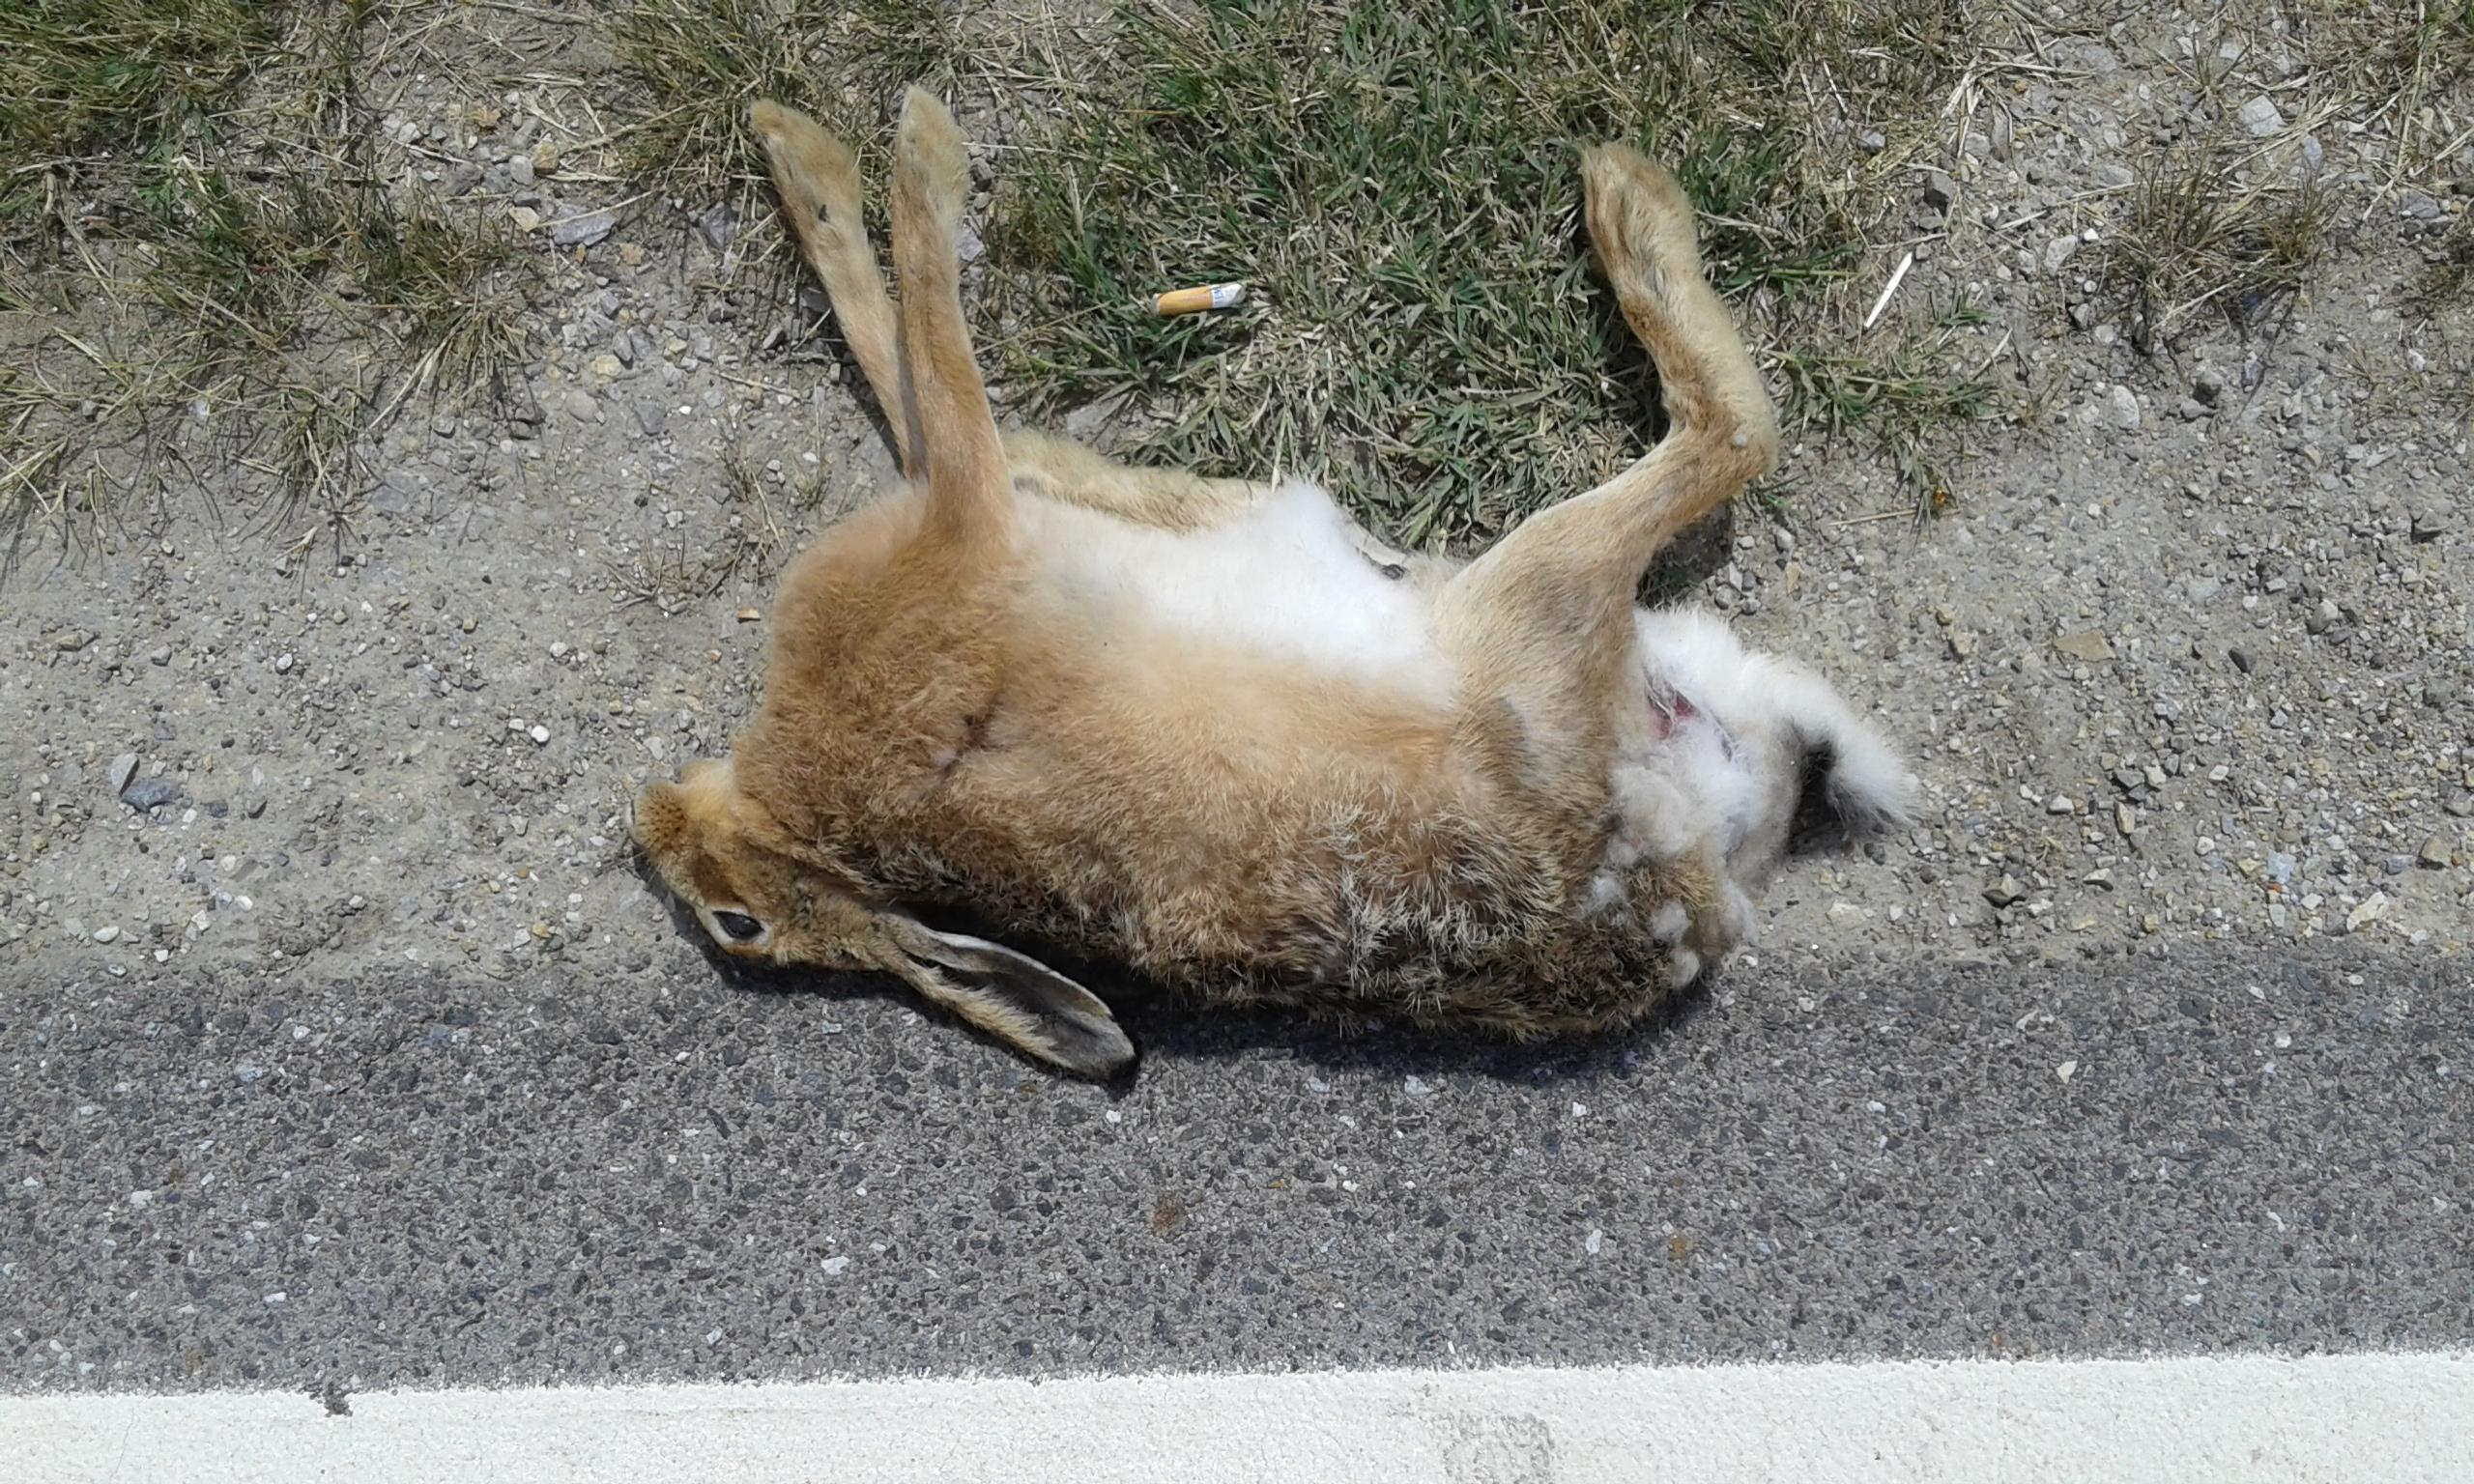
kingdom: Animalia
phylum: Chordata
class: Mammalia
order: Lagomorpha
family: Leporidae
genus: Lepus
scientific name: Lepus europaeus
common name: European hare
